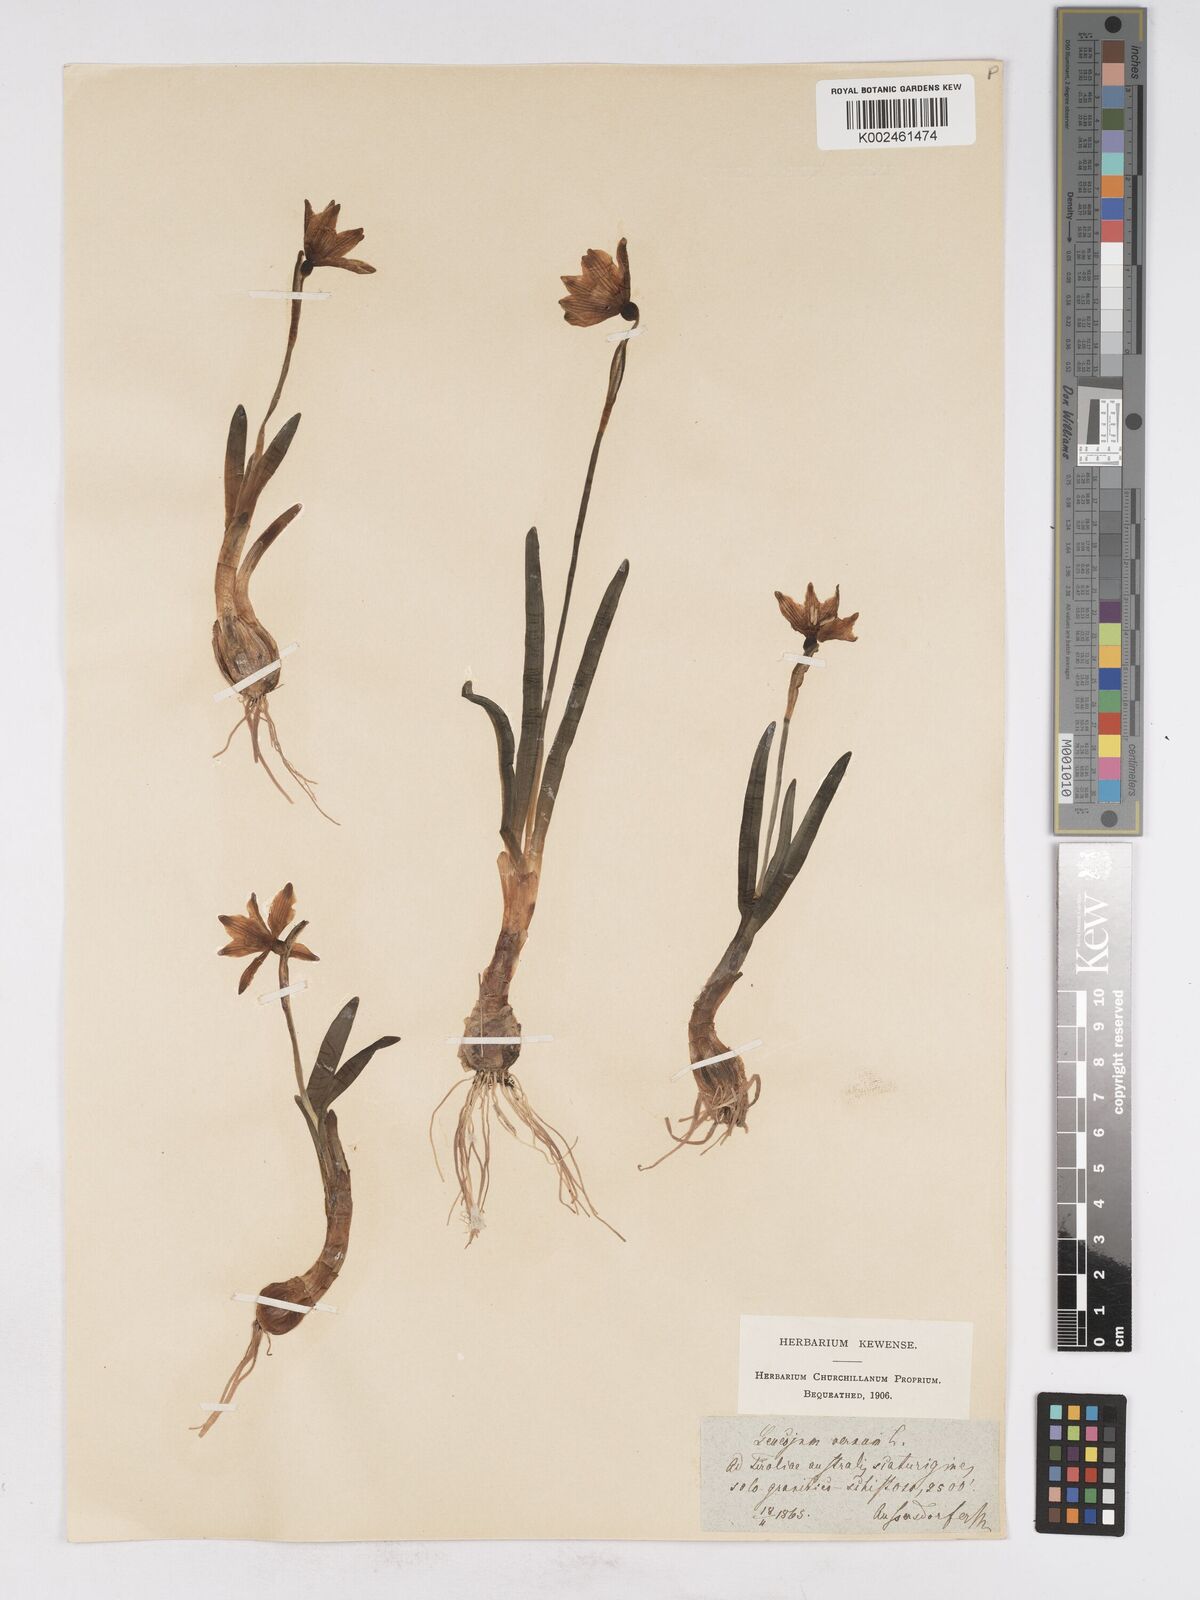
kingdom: Plantae
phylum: Tracheophyta
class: Liliopsida
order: Asparagales
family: Amaryllidaceae
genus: Leucojum
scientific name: Leucojum vernum
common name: Spring snowflake
